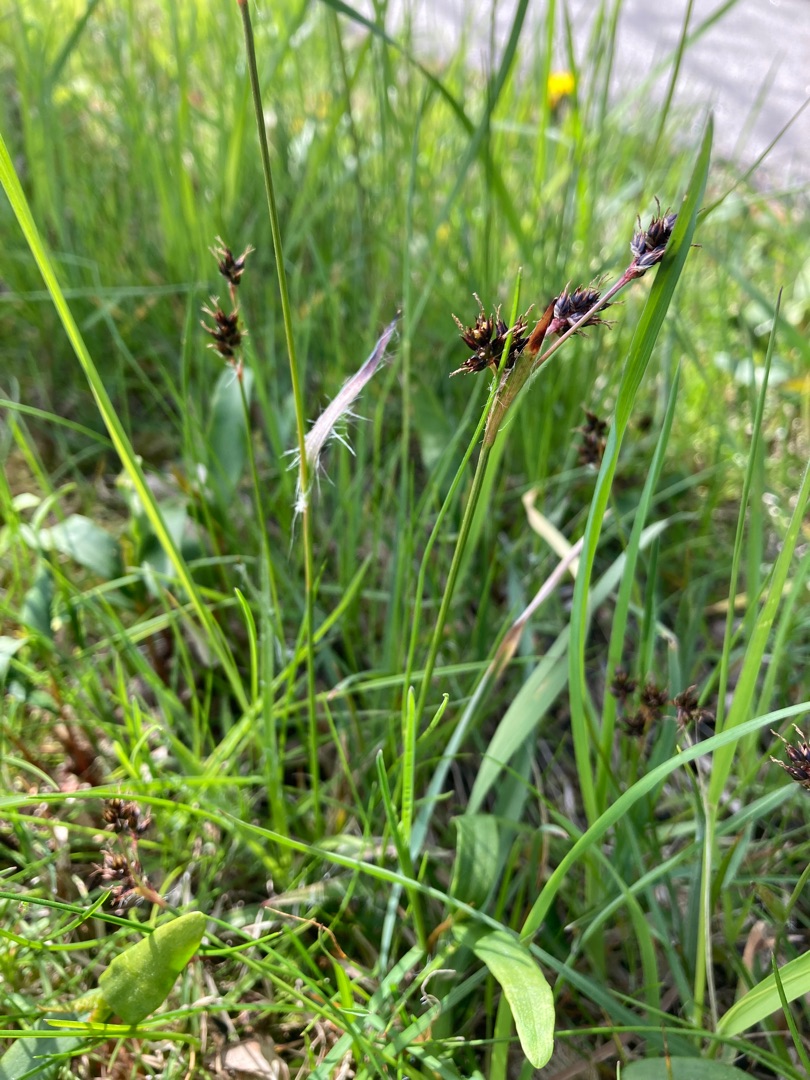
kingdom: Plantae
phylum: Tracheophyta
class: Liliopsida
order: Poales
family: Juncaceae
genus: Luzula
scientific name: Luzula campestris
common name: Mark-frytle
